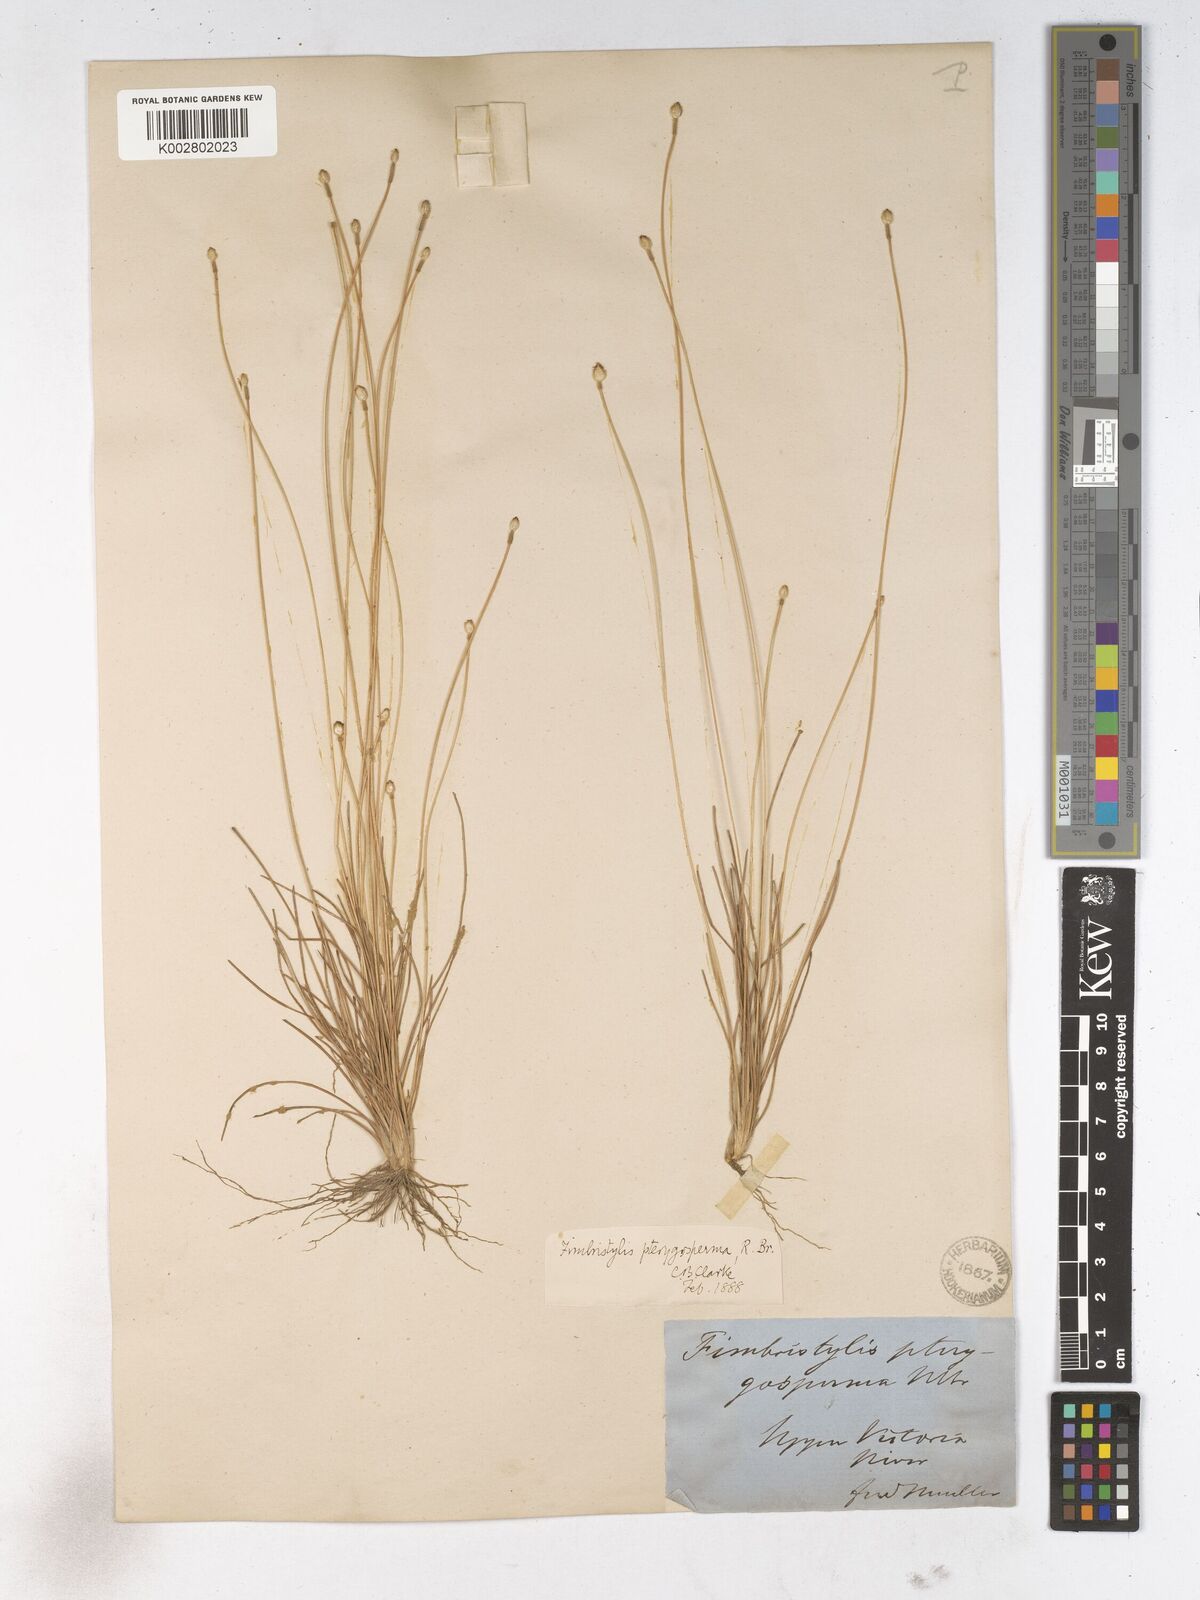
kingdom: Plantae
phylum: Tracheophyta
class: Liliopsida
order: Poales
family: Cyperaceae
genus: Fimbristylis
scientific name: Fimbristylis pterigosperma
